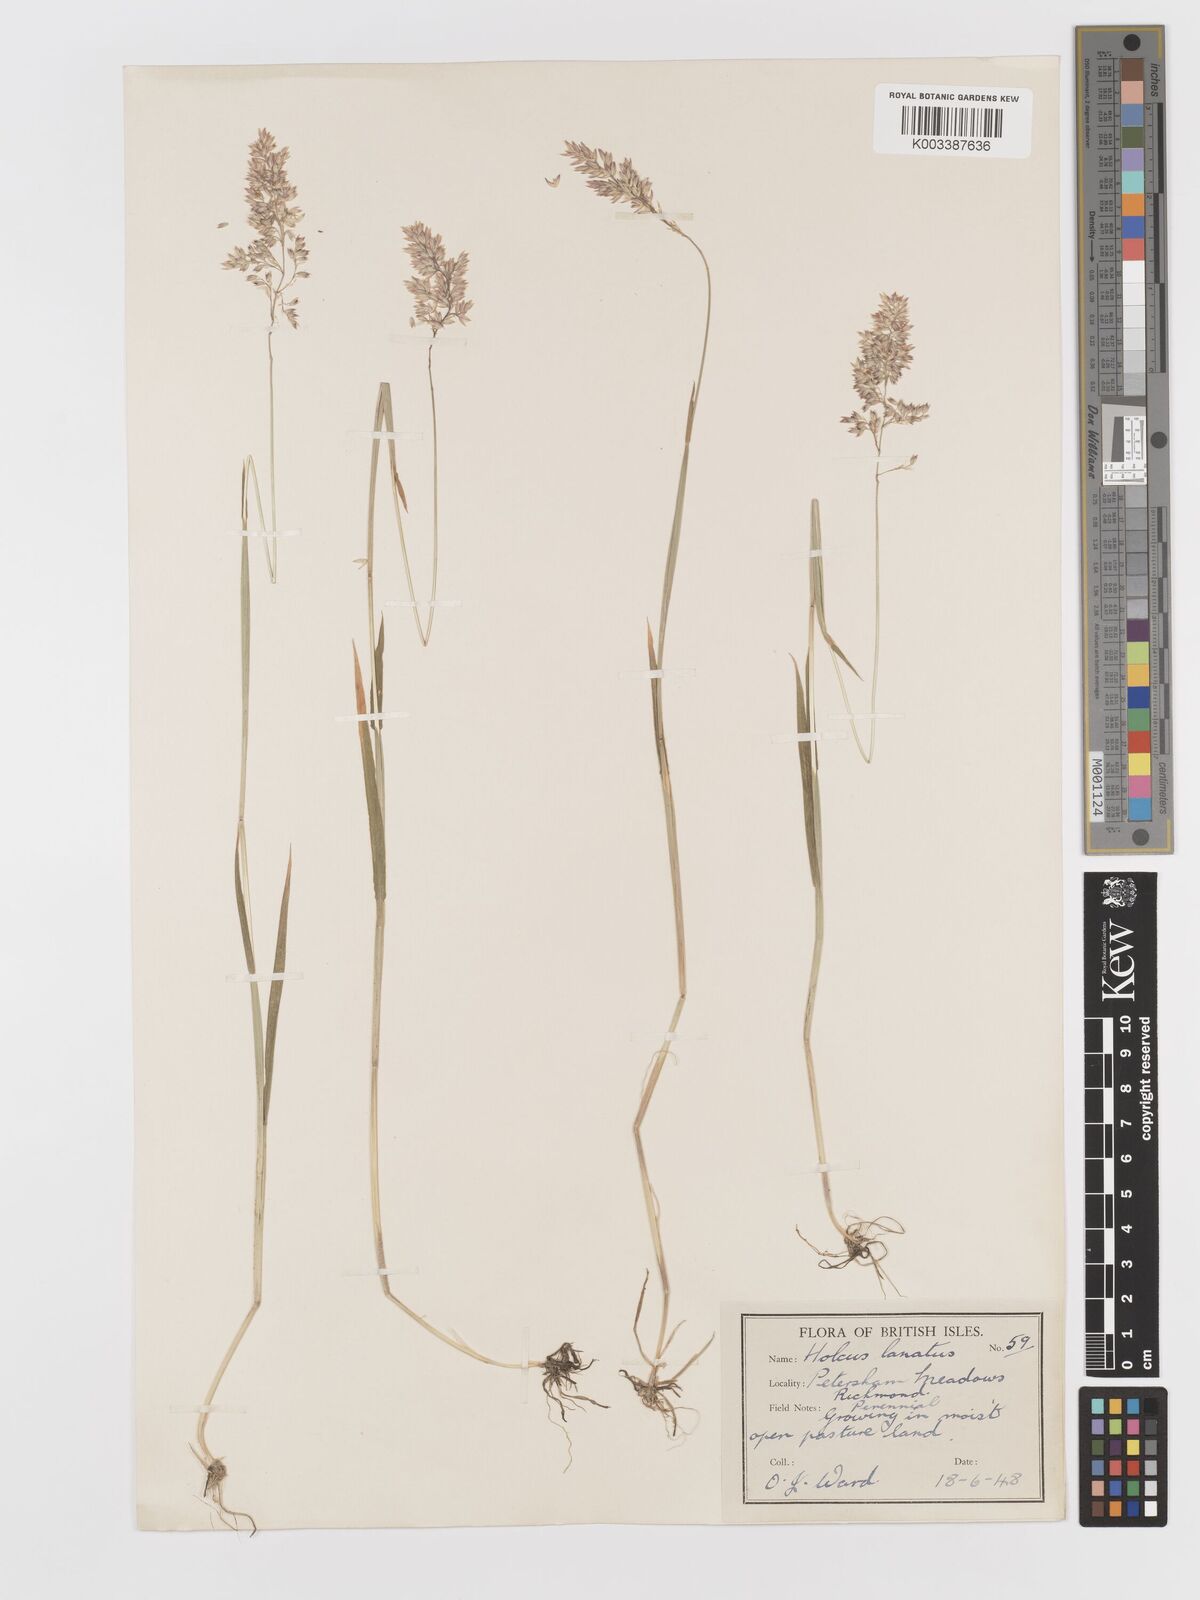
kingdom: Plantae
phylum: Tracheophyta
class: Liliopsida
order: Poales
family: Poaceae
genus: Holcus
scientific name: Holcus lanatus
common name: Yorkshire-fog
